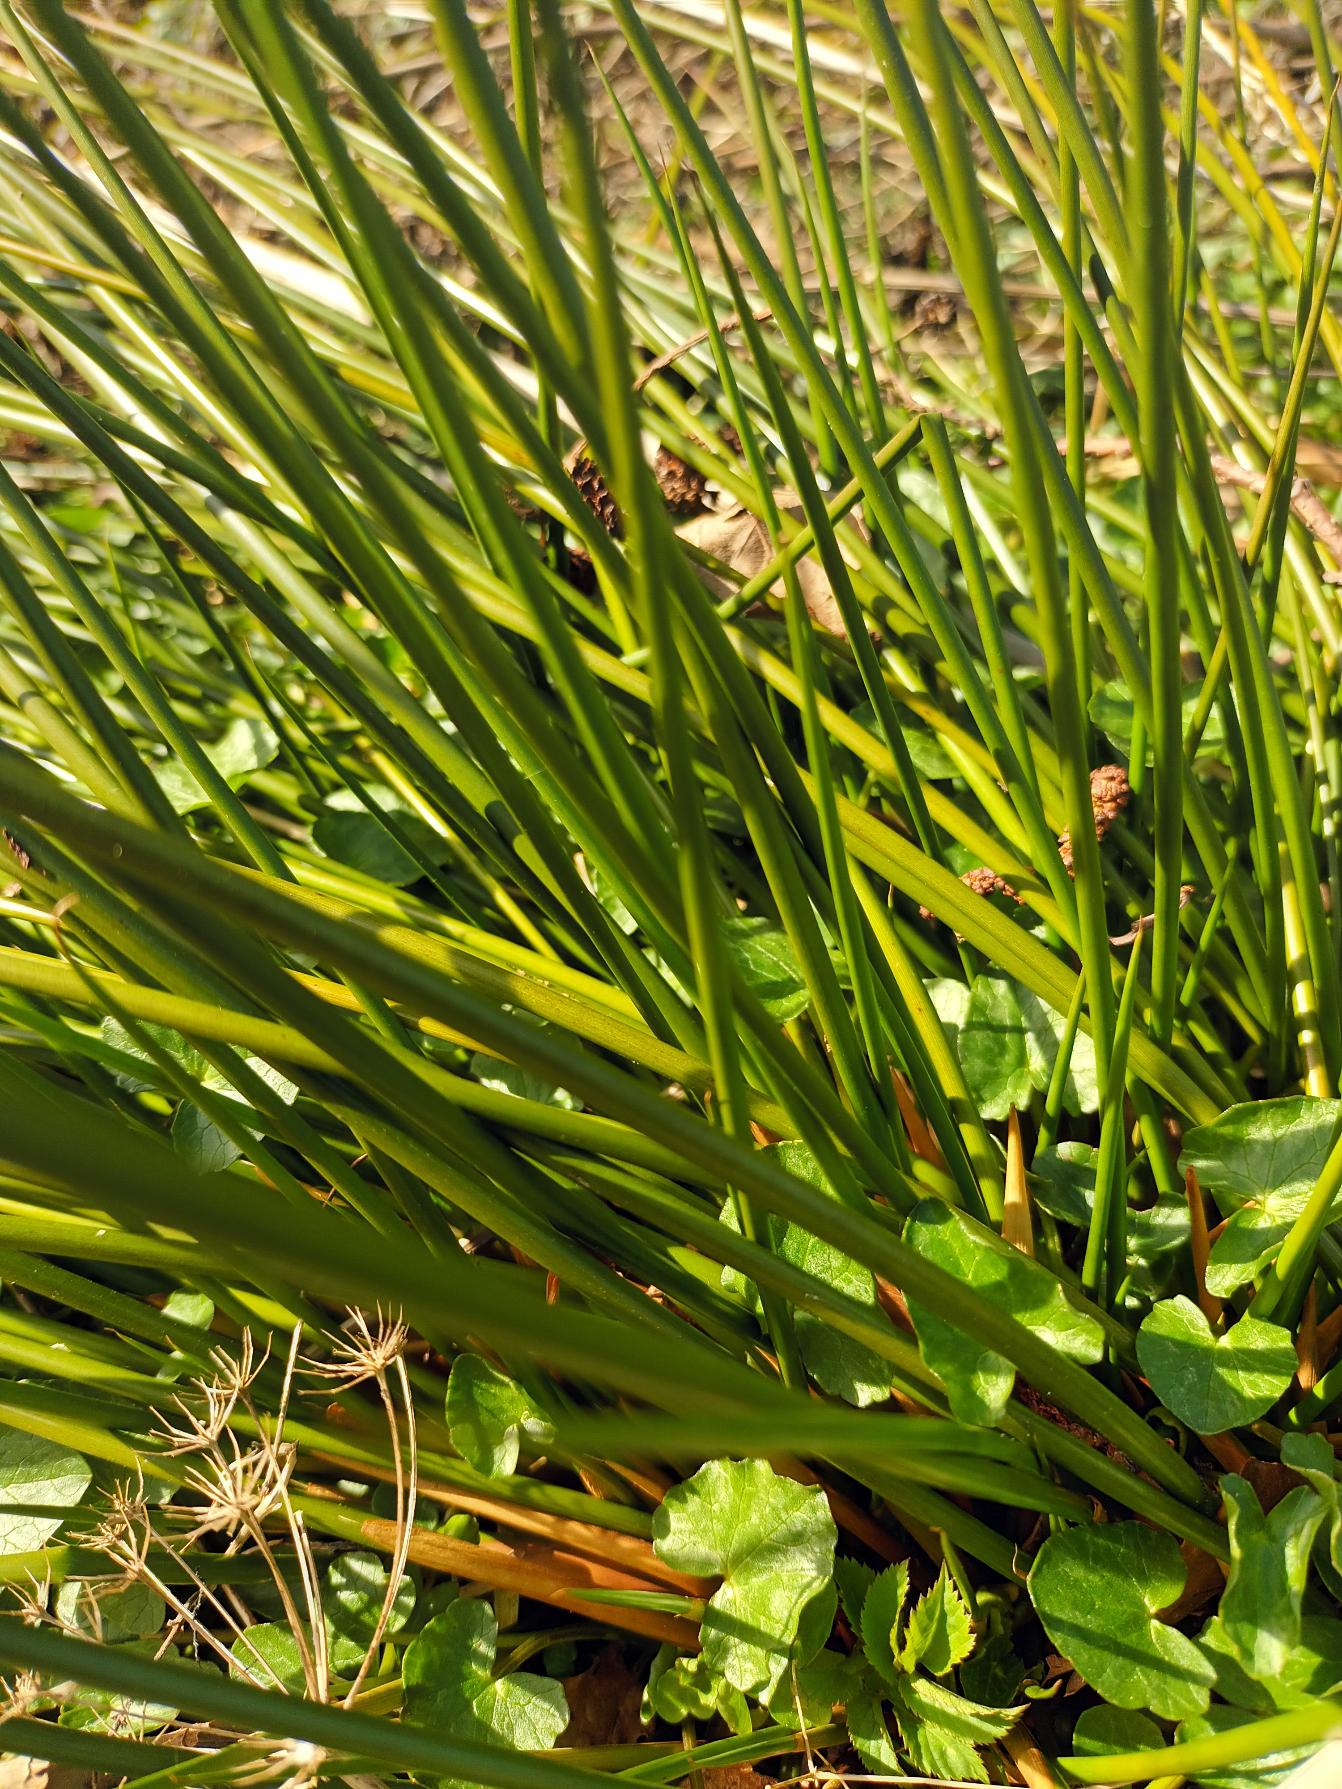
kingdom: Plantae
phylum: Tracheophyta
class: Liliopsida
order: Poales
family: Juncaceae
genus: Juncus
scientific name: Juncus effusus
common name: Lyse-siv
